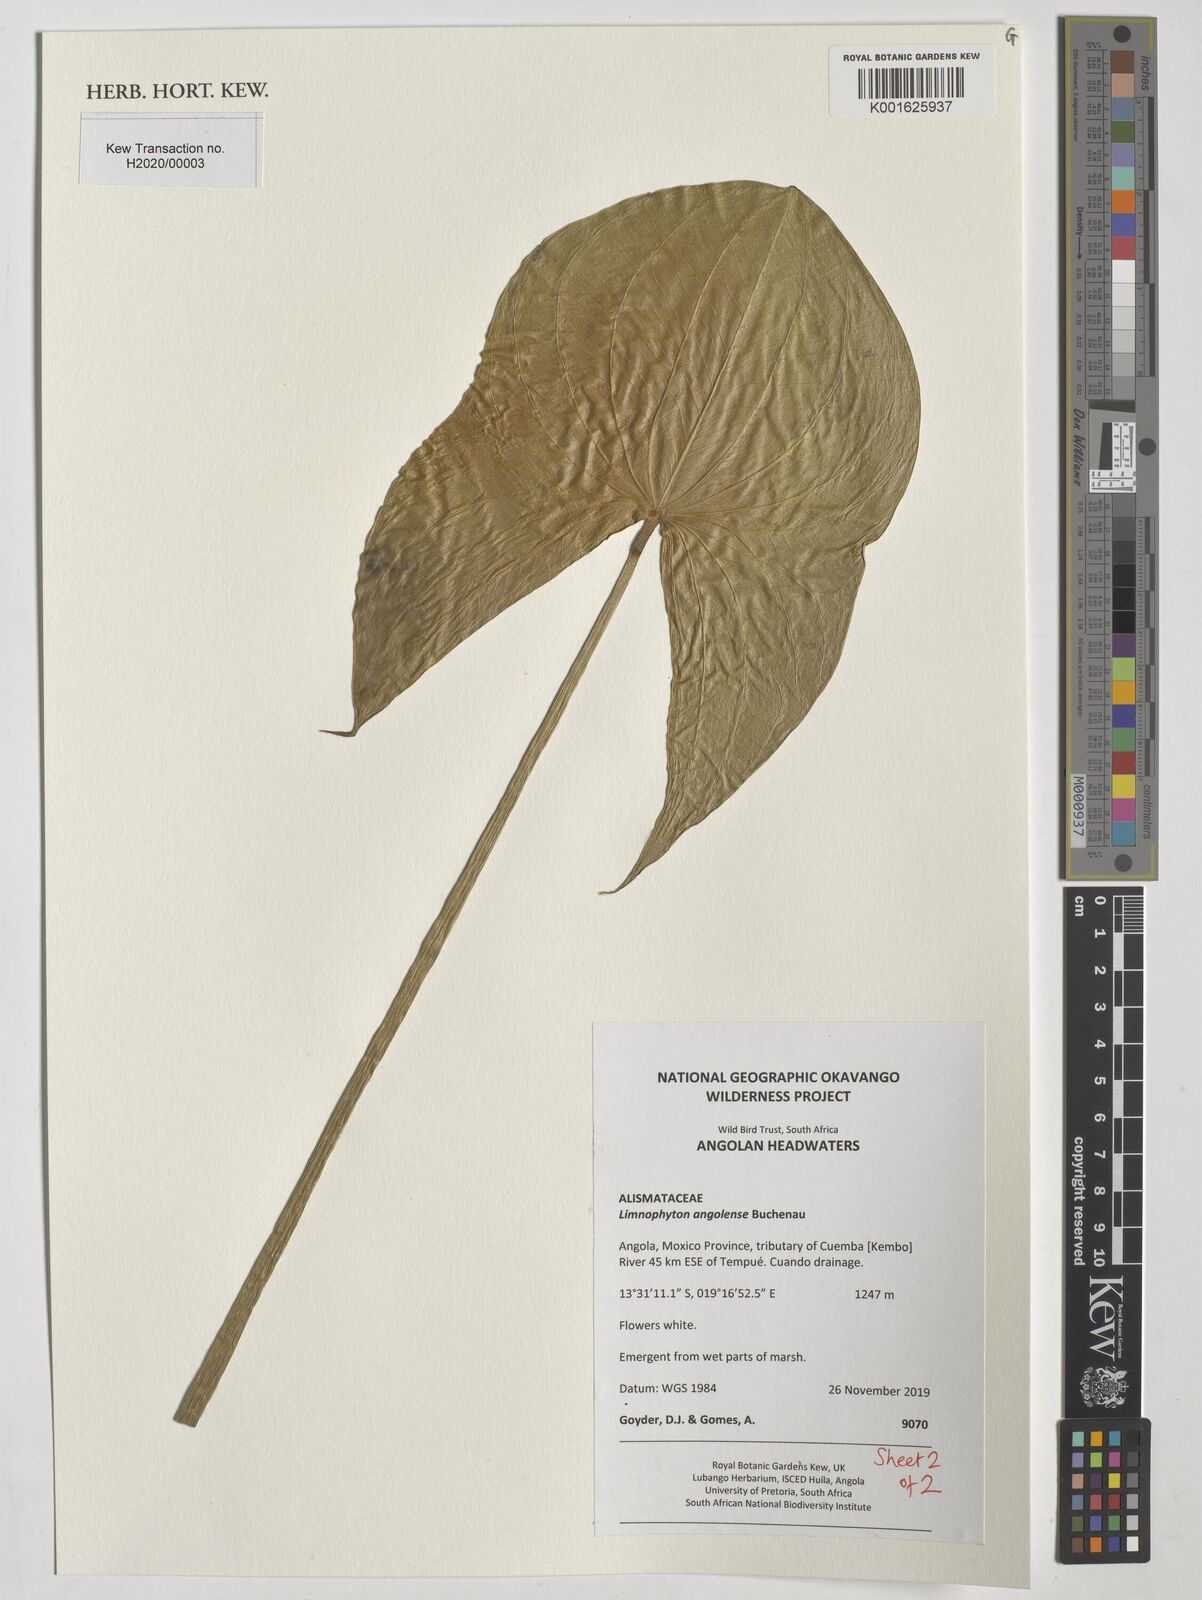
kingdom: Plantae
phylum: Tracheophyta
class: Liliopsida
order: Alismatales
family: Alismataceae
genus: Limnophyton
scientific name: Limnophyton angolense
